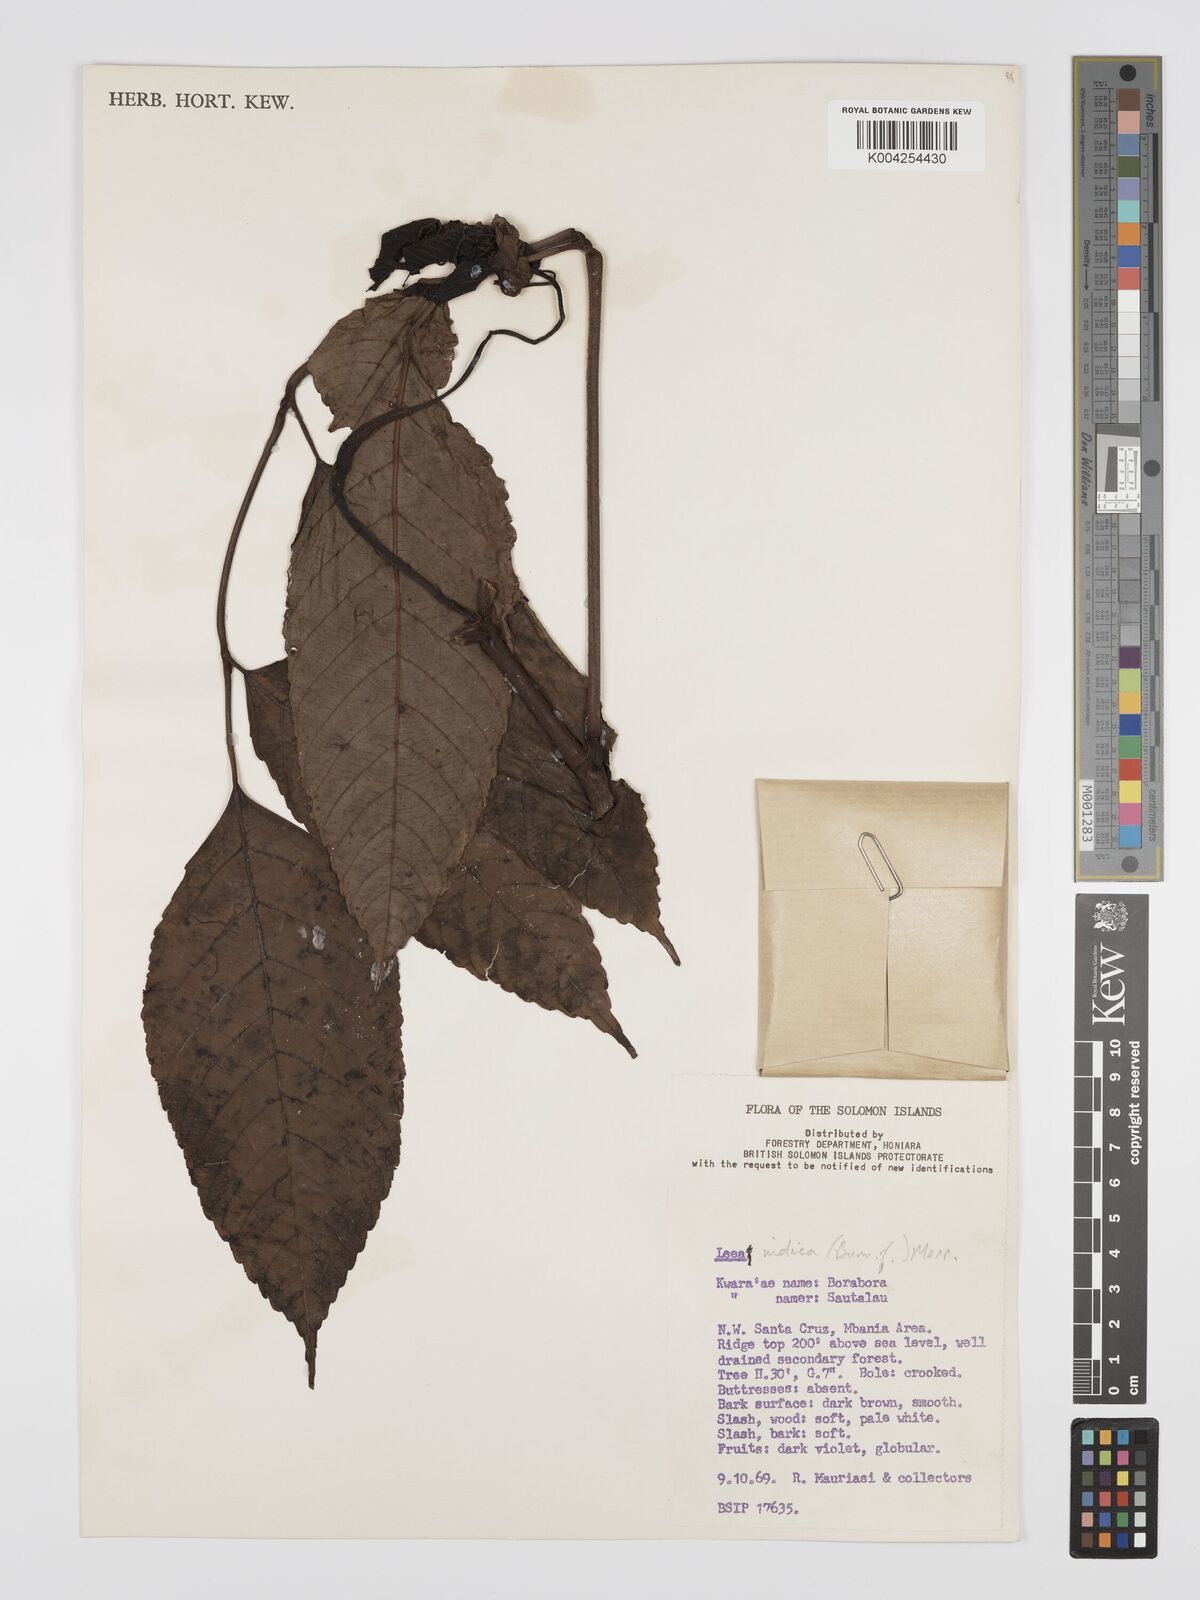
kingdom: Plantae
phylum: Tracheophyta
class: Magnoliopsida
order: Vitales
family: Vitaceae
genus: Leea
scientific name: Leea indica
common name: Bandicoot-berry
